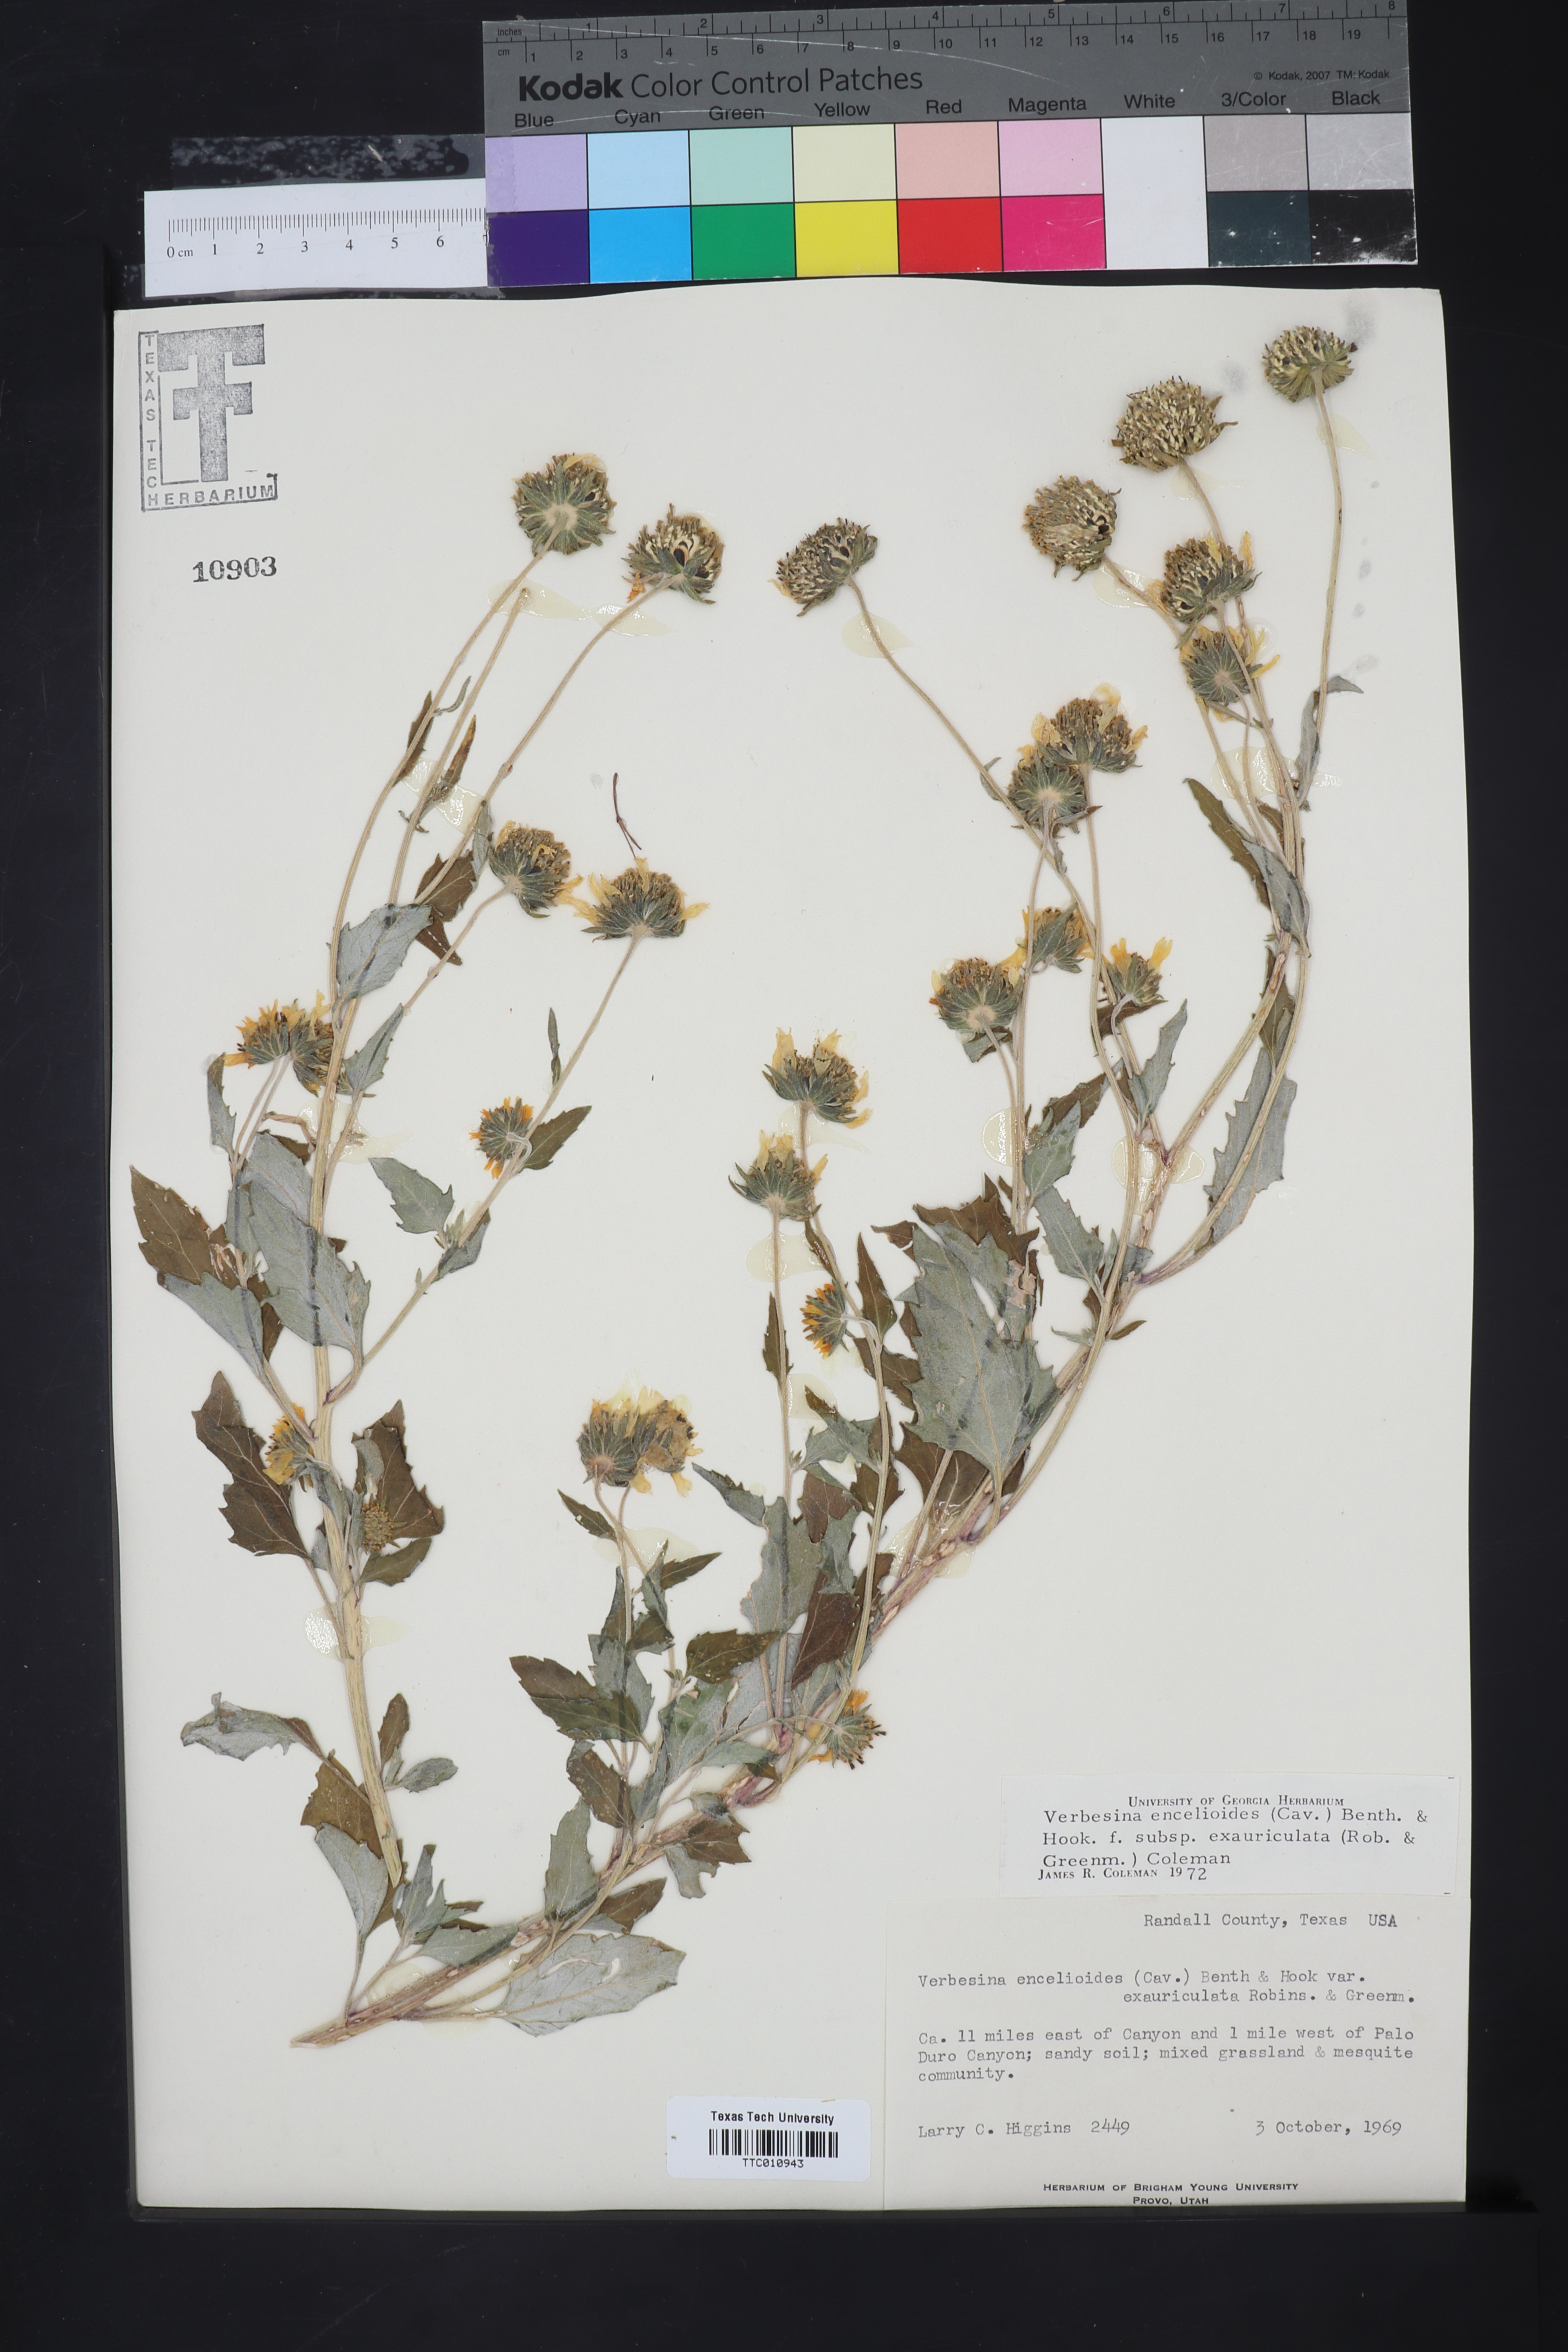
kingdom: Plantae
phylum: Tracheophyta
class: Magnoliopsida
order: Asterales
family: Asteraceae
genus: Verbesina
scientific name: Verbesina encelioides
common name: Golden crownbeard
